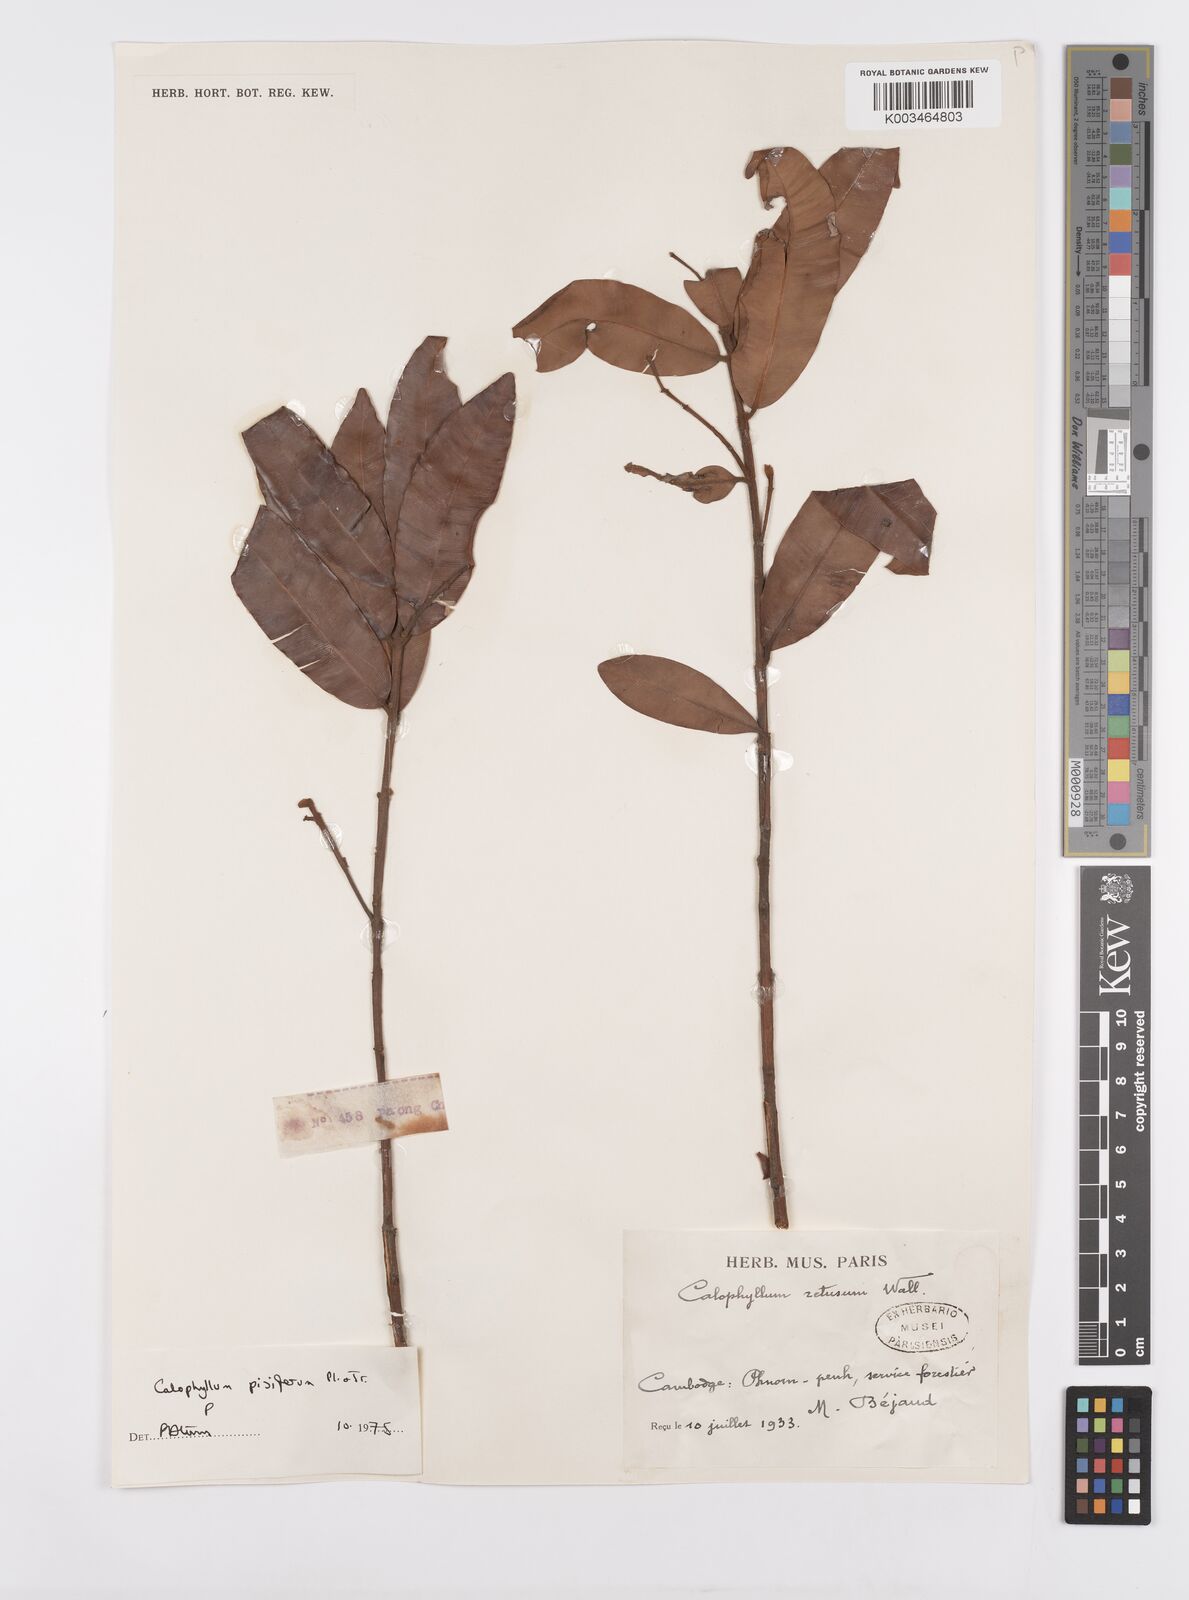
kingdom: Plantae
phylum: Tracheophyta
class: Magnoliopsida
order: Malpighiales
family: Calophyllaceae
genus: Calophyllum
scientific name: Calophyllum pisiferum
